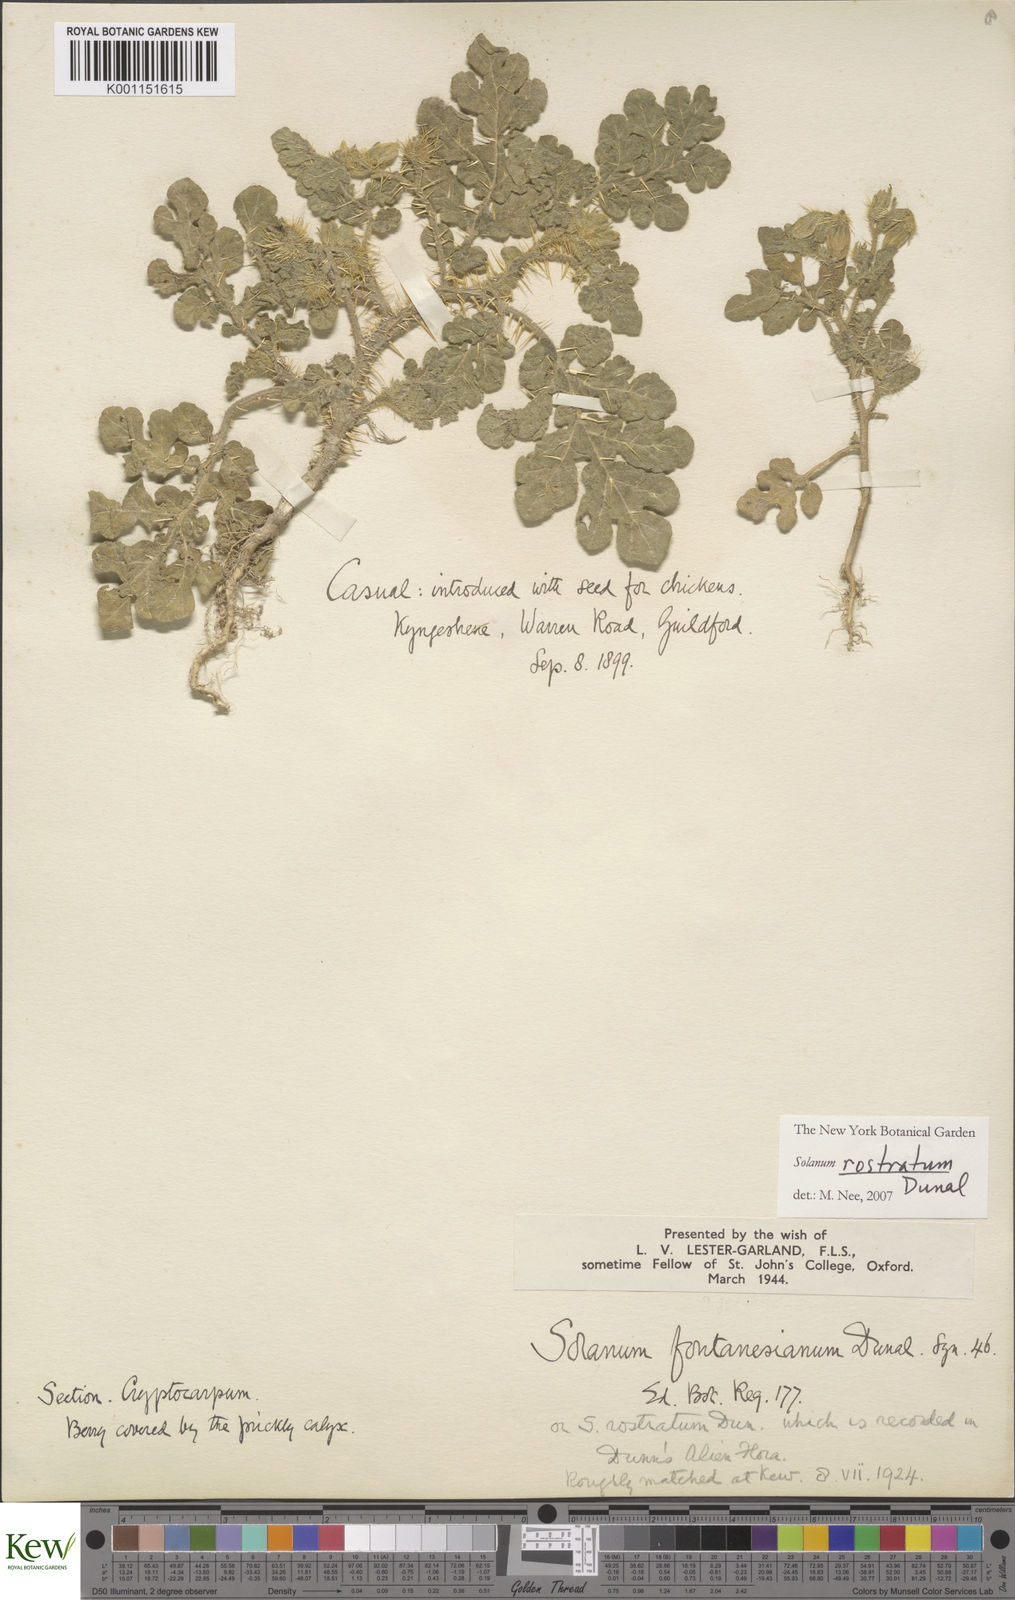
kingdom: Plantae
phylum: Tracheophyta
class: Magnoliopsida
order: Solanales
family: Solanaceae
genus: Solanum
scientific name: Solanum angustifolium
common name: Buffalobur nightshade
